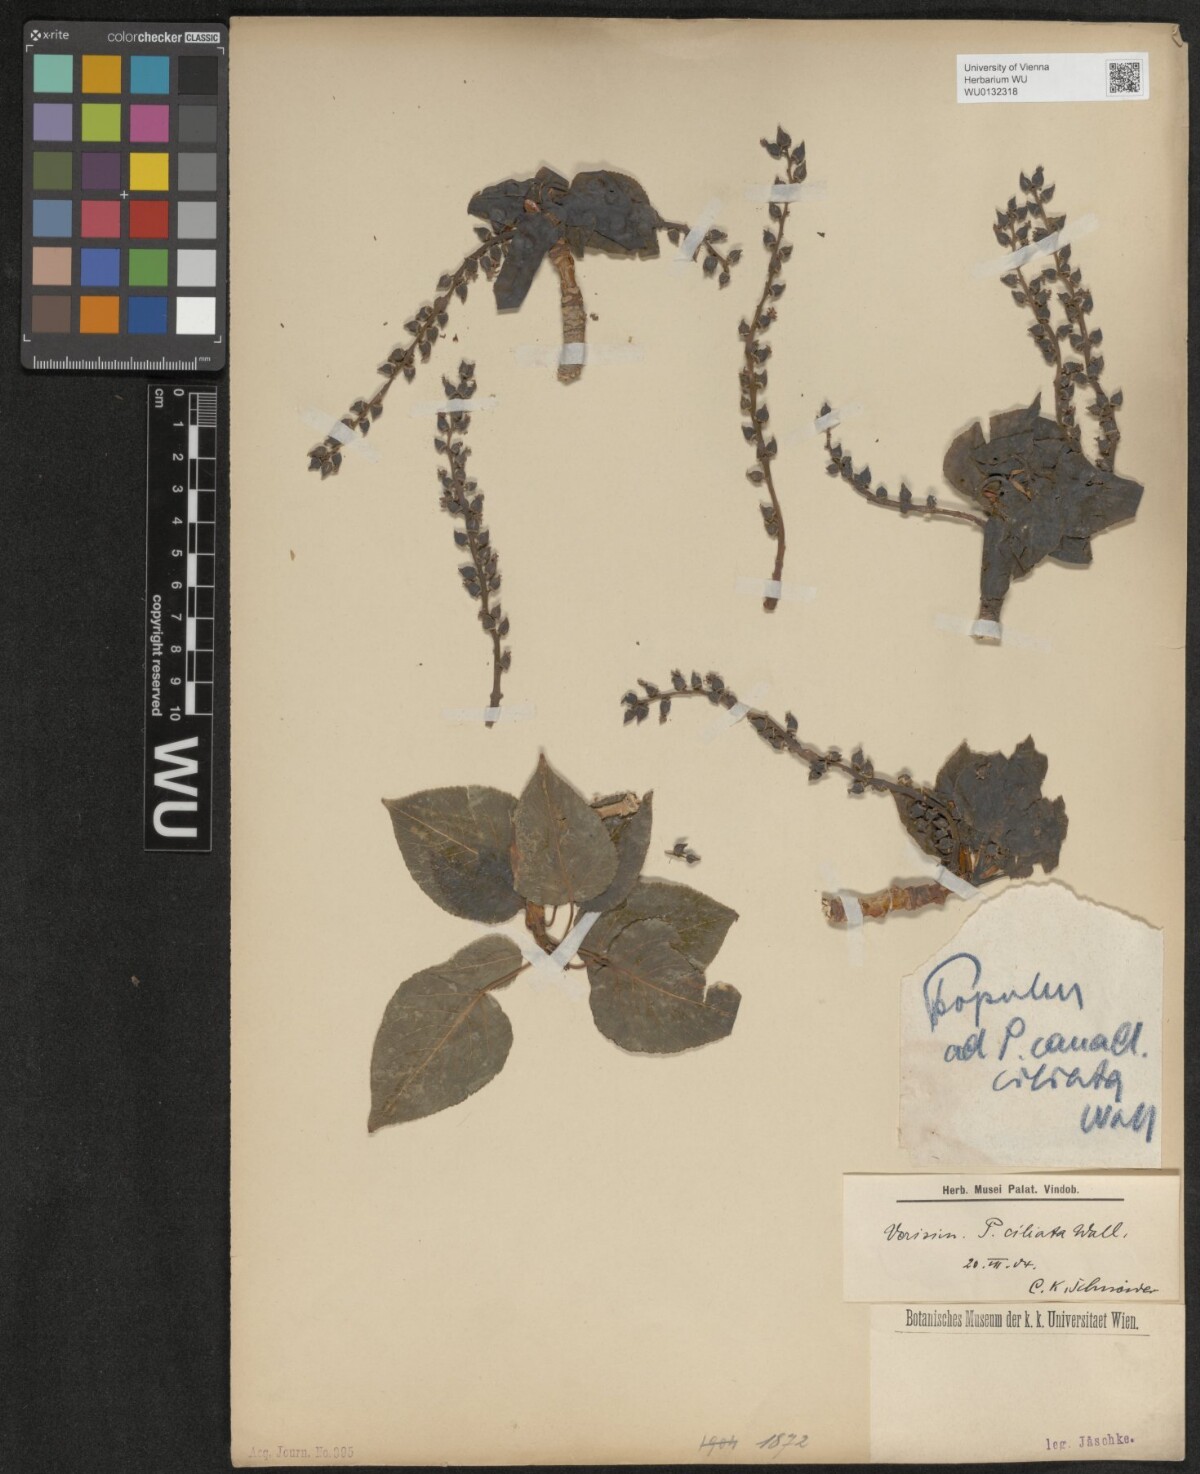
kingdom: Plantae
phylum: Tracheophyta
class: Magnoliopsida
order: Malpighiales
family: Salicaceae
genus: Populus
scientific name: Populus ciliata
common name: Himalayan poplar
